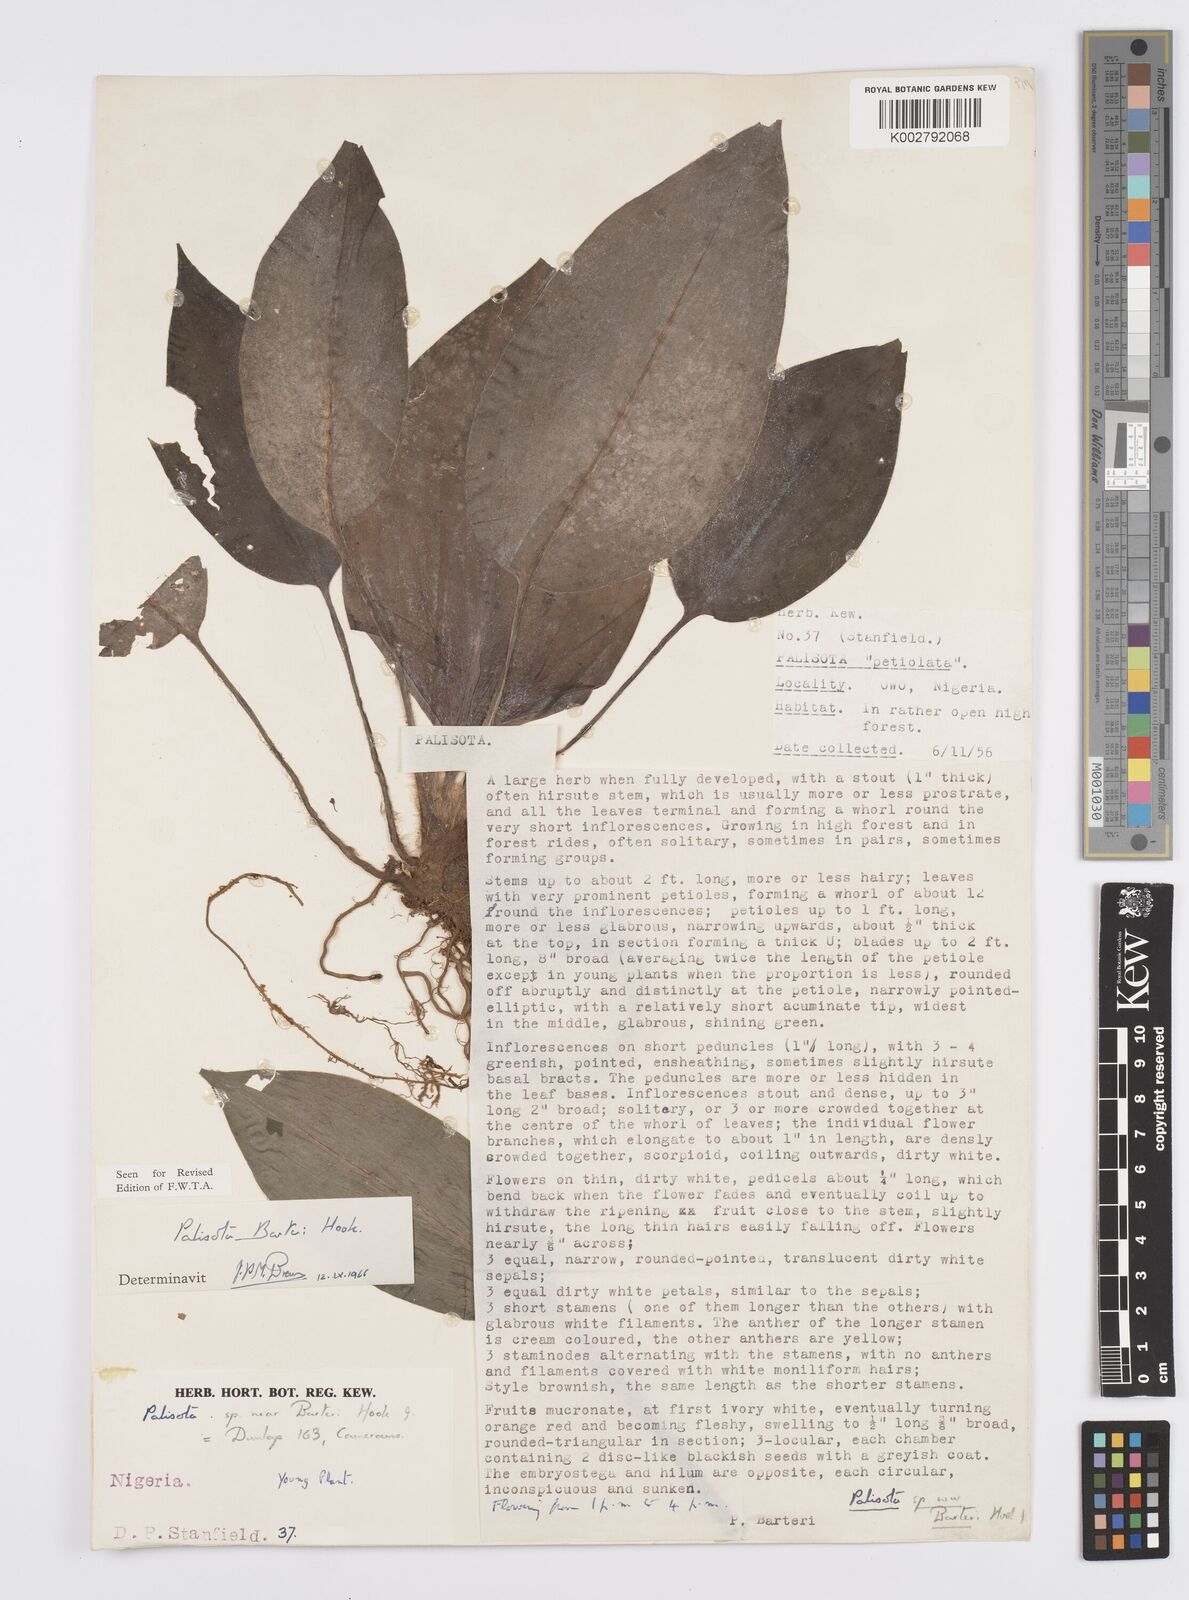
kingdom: Plantae
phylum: Tracheophyta
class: Liliopsida
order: Commelinales
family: Commelinaceae
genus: Palisota
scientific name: Palisota barteri
